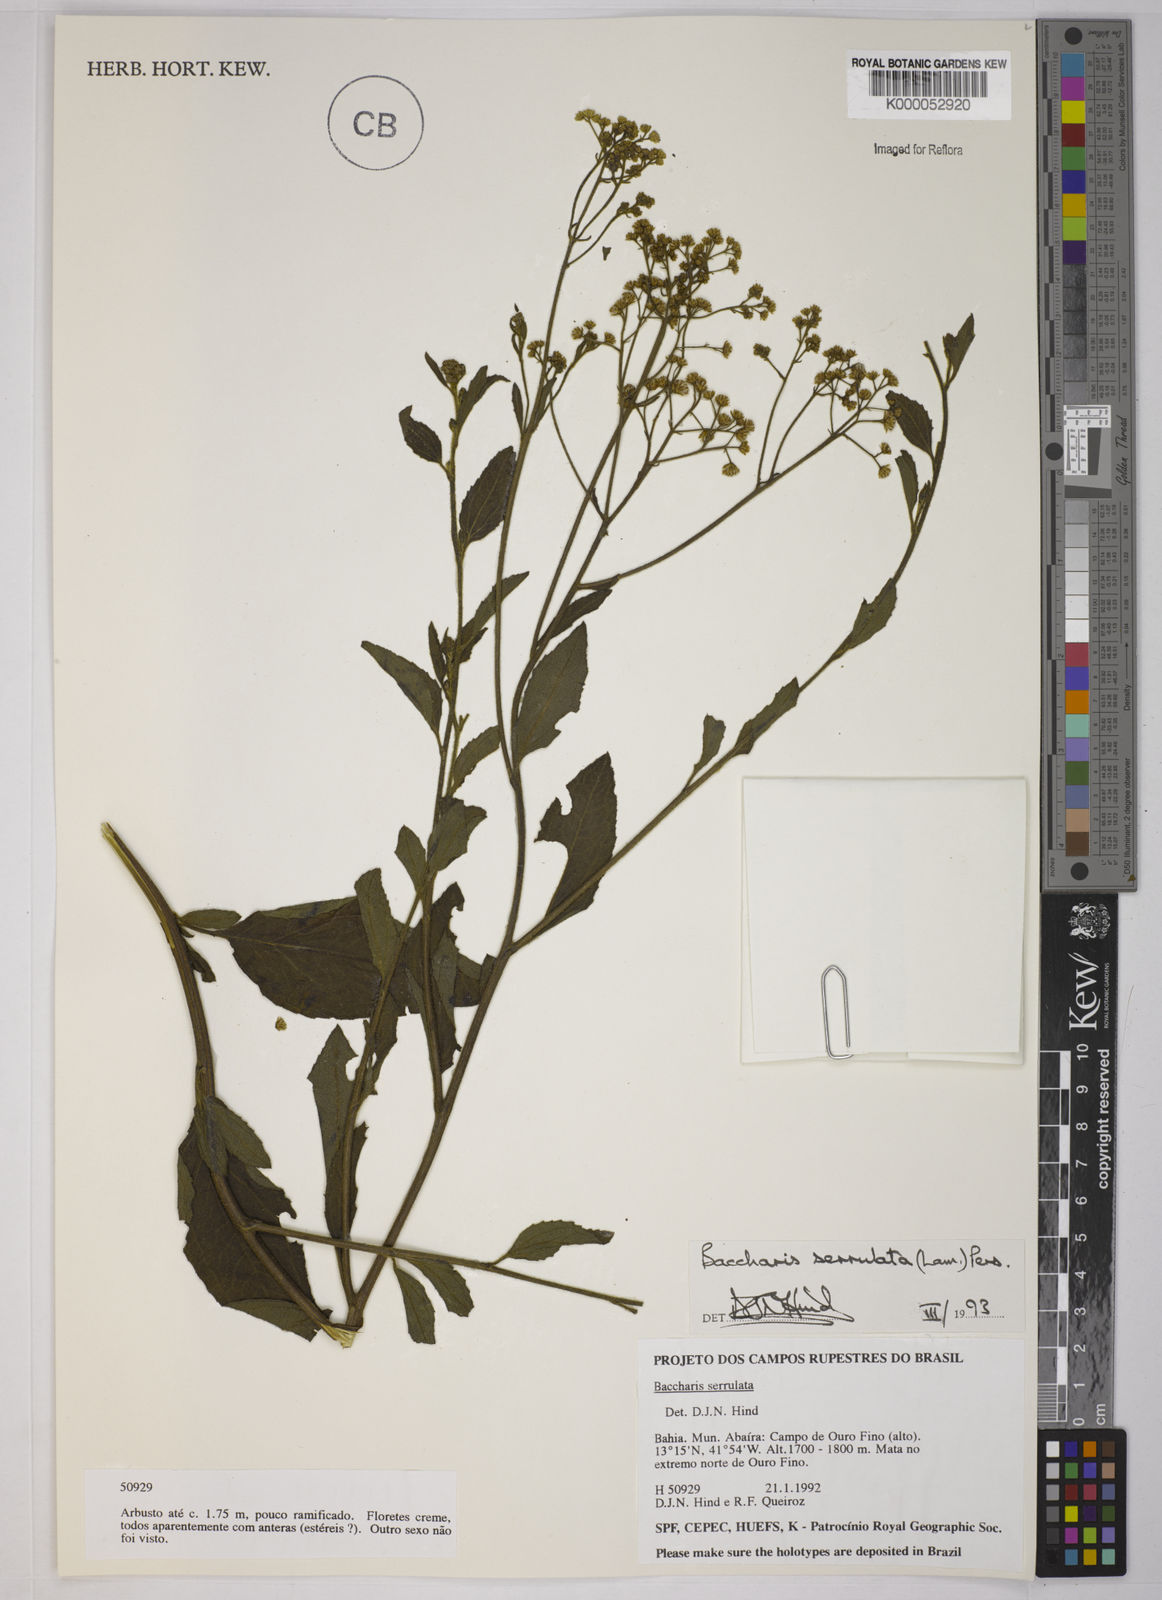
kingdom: Plantae
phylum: Tracheophyta
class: Magnoliopsida
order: Asterales
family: Asteraceae
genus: Baccharis
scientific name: Baccharis serrulata
